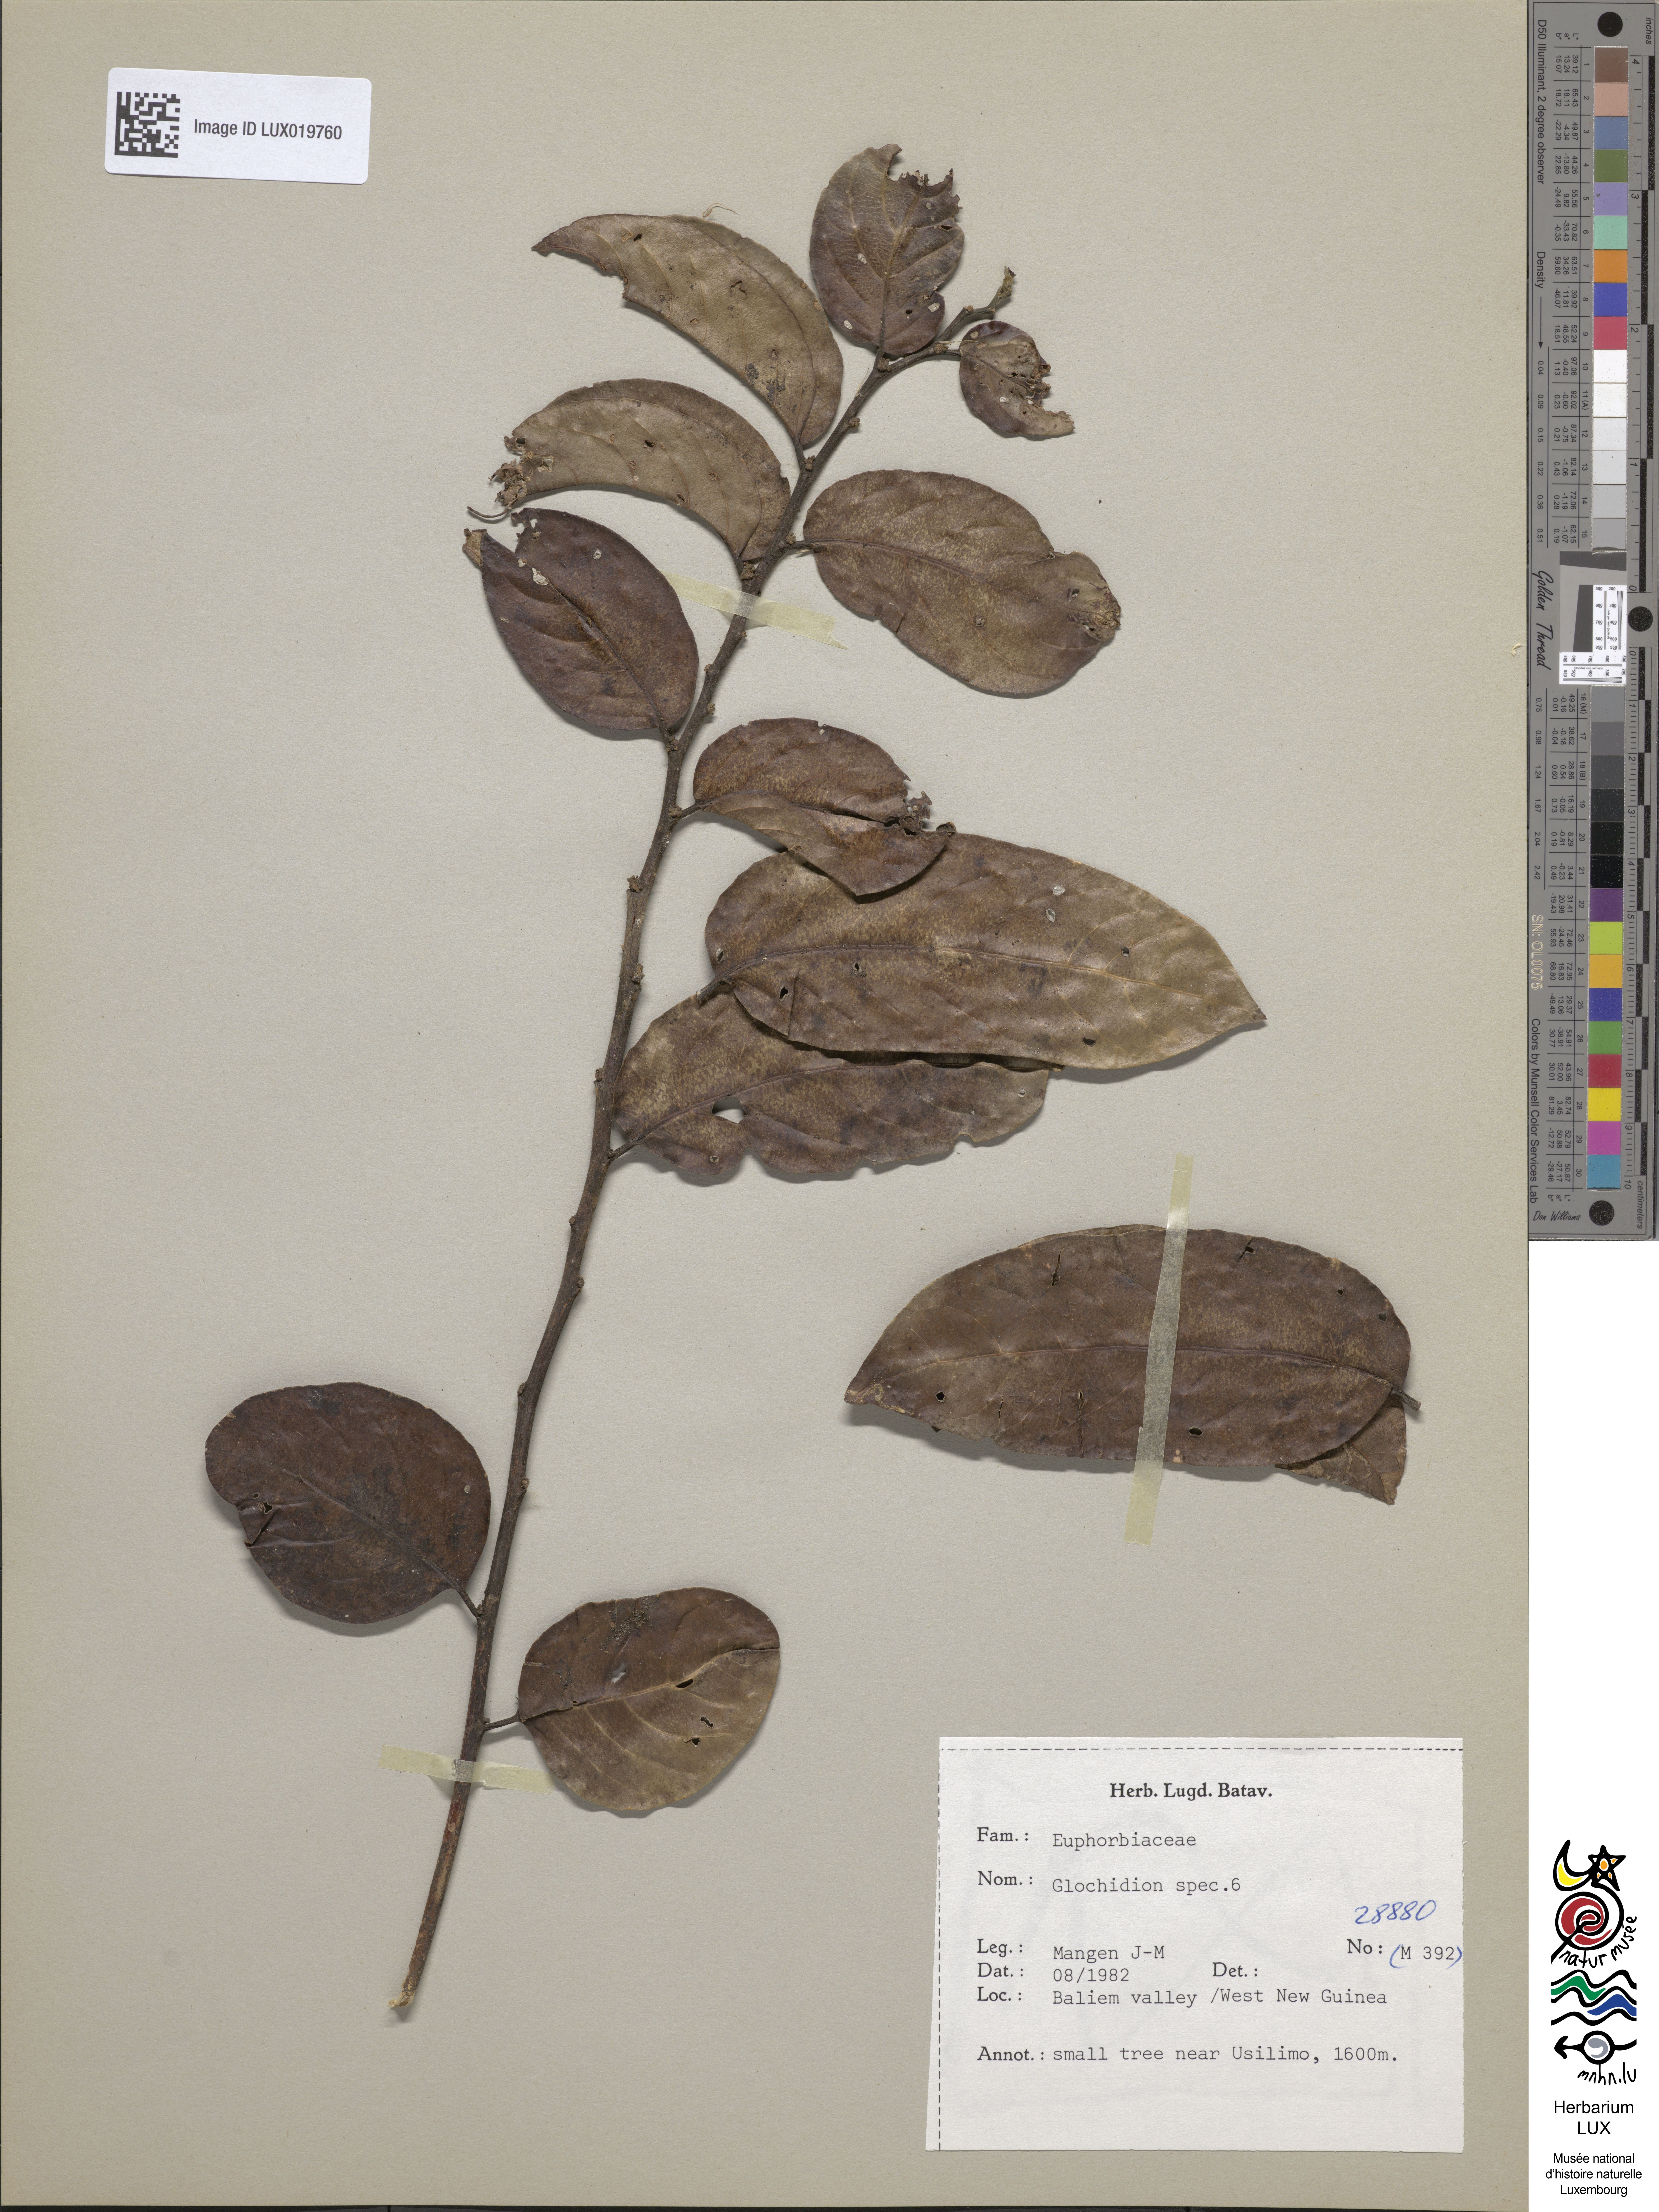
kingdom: Plantae
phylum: Tracheophyta
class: Magnoliopsida
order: Malpighiales
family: Phyllanthaceae
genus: Glochidion
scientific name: Glochidion
